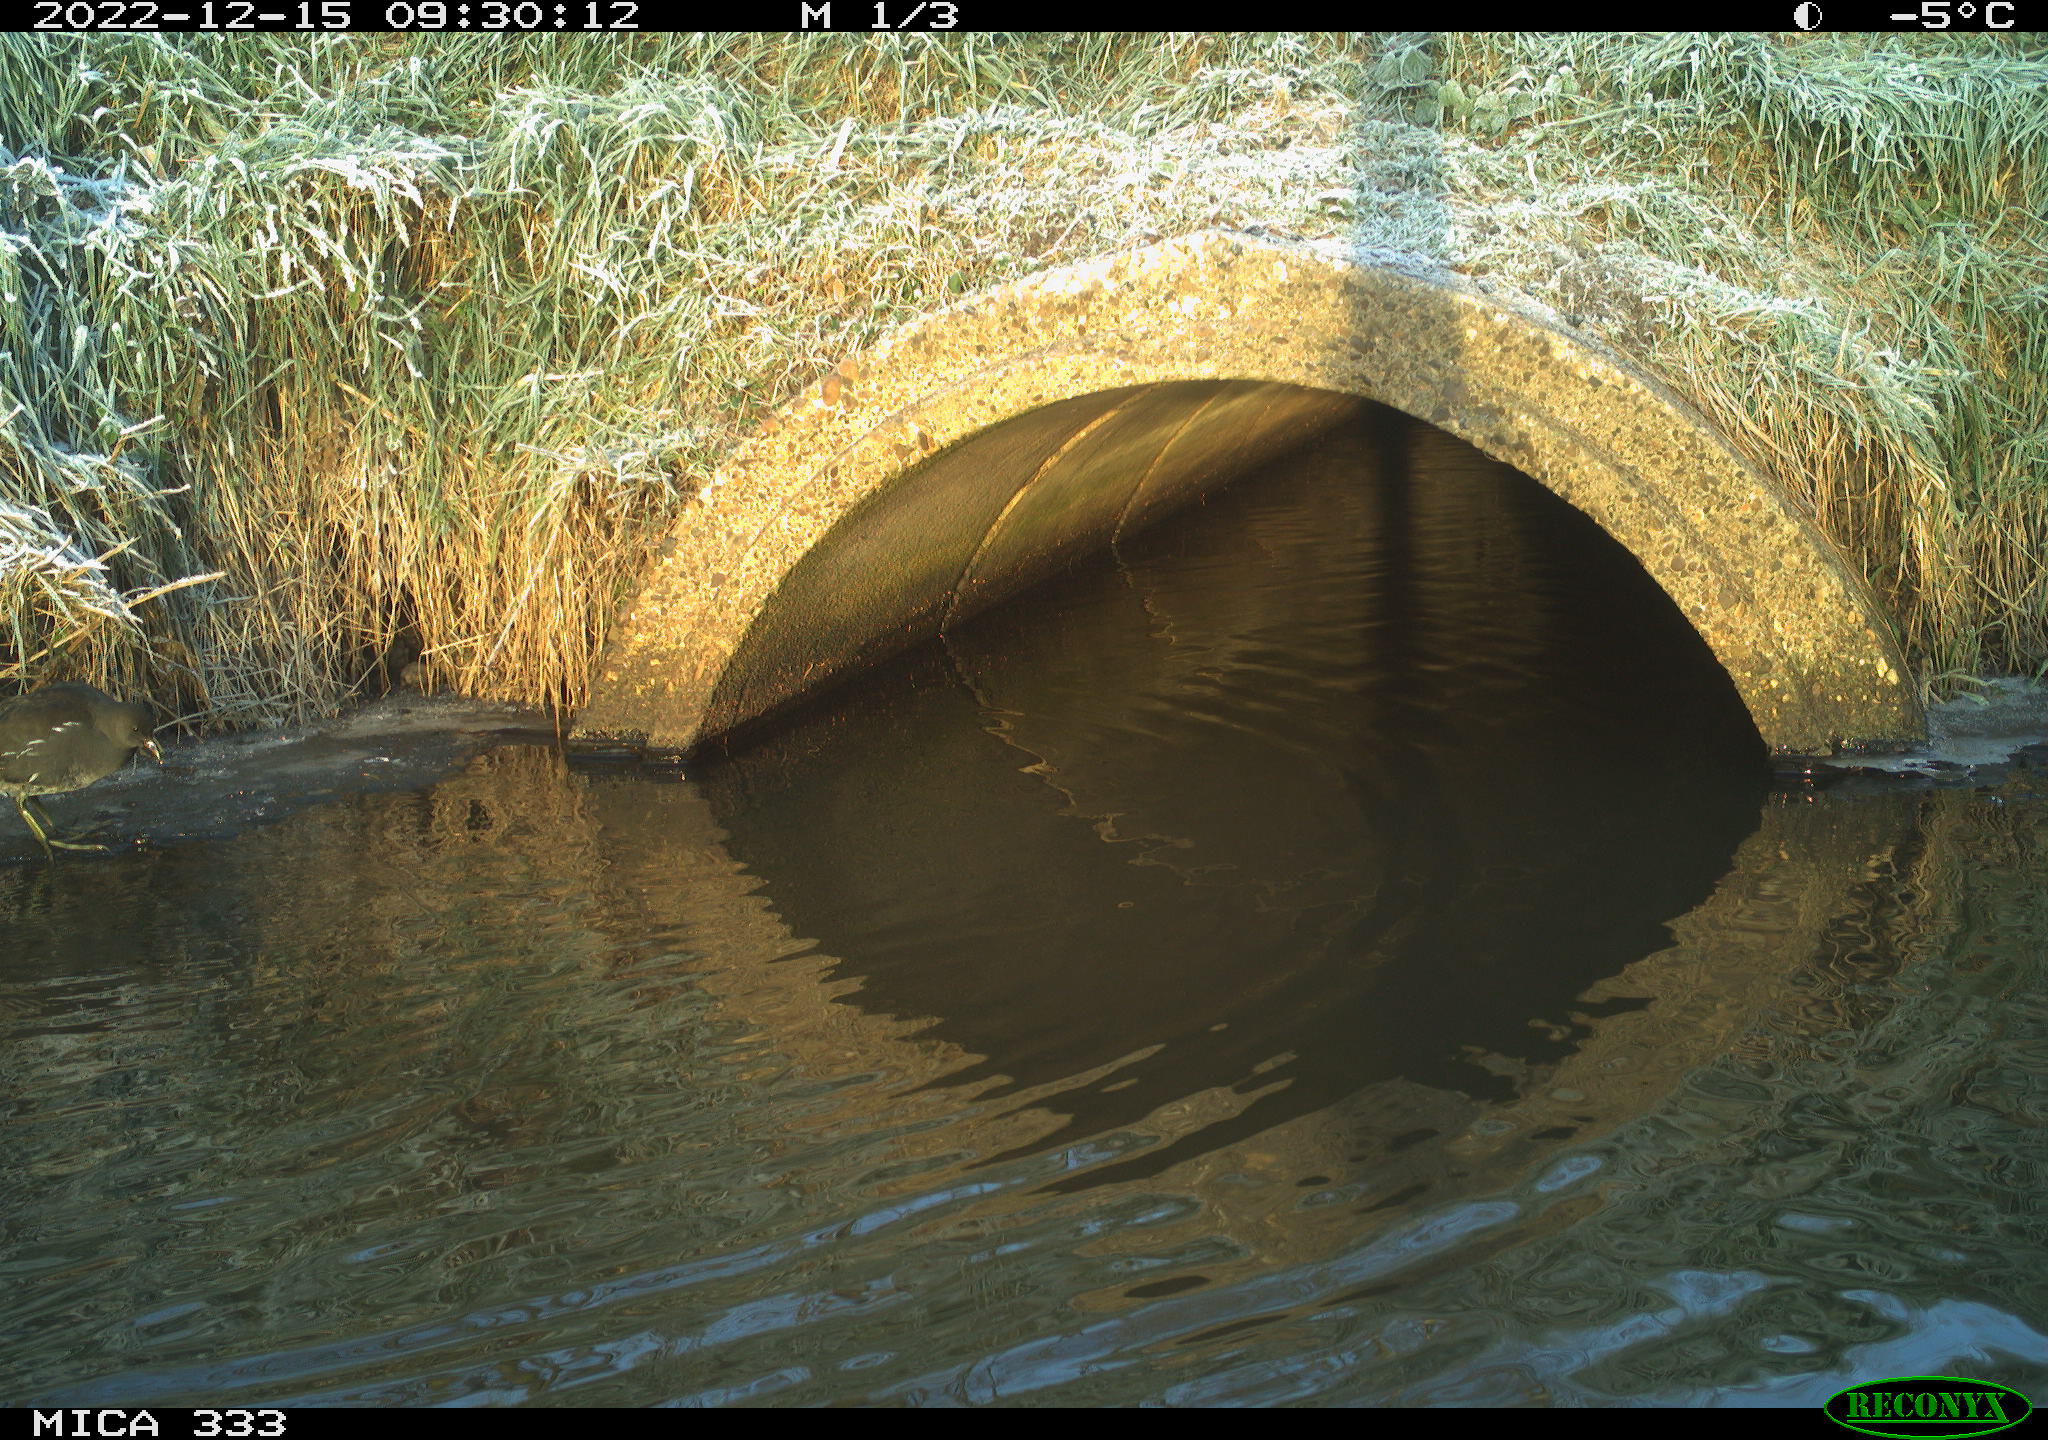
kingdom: Animalia
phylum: Chordata
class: Aves
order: Gruiformes
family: Rallidae
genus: Gallinula
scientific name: Gallinula chloropus
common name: Common moorhen
